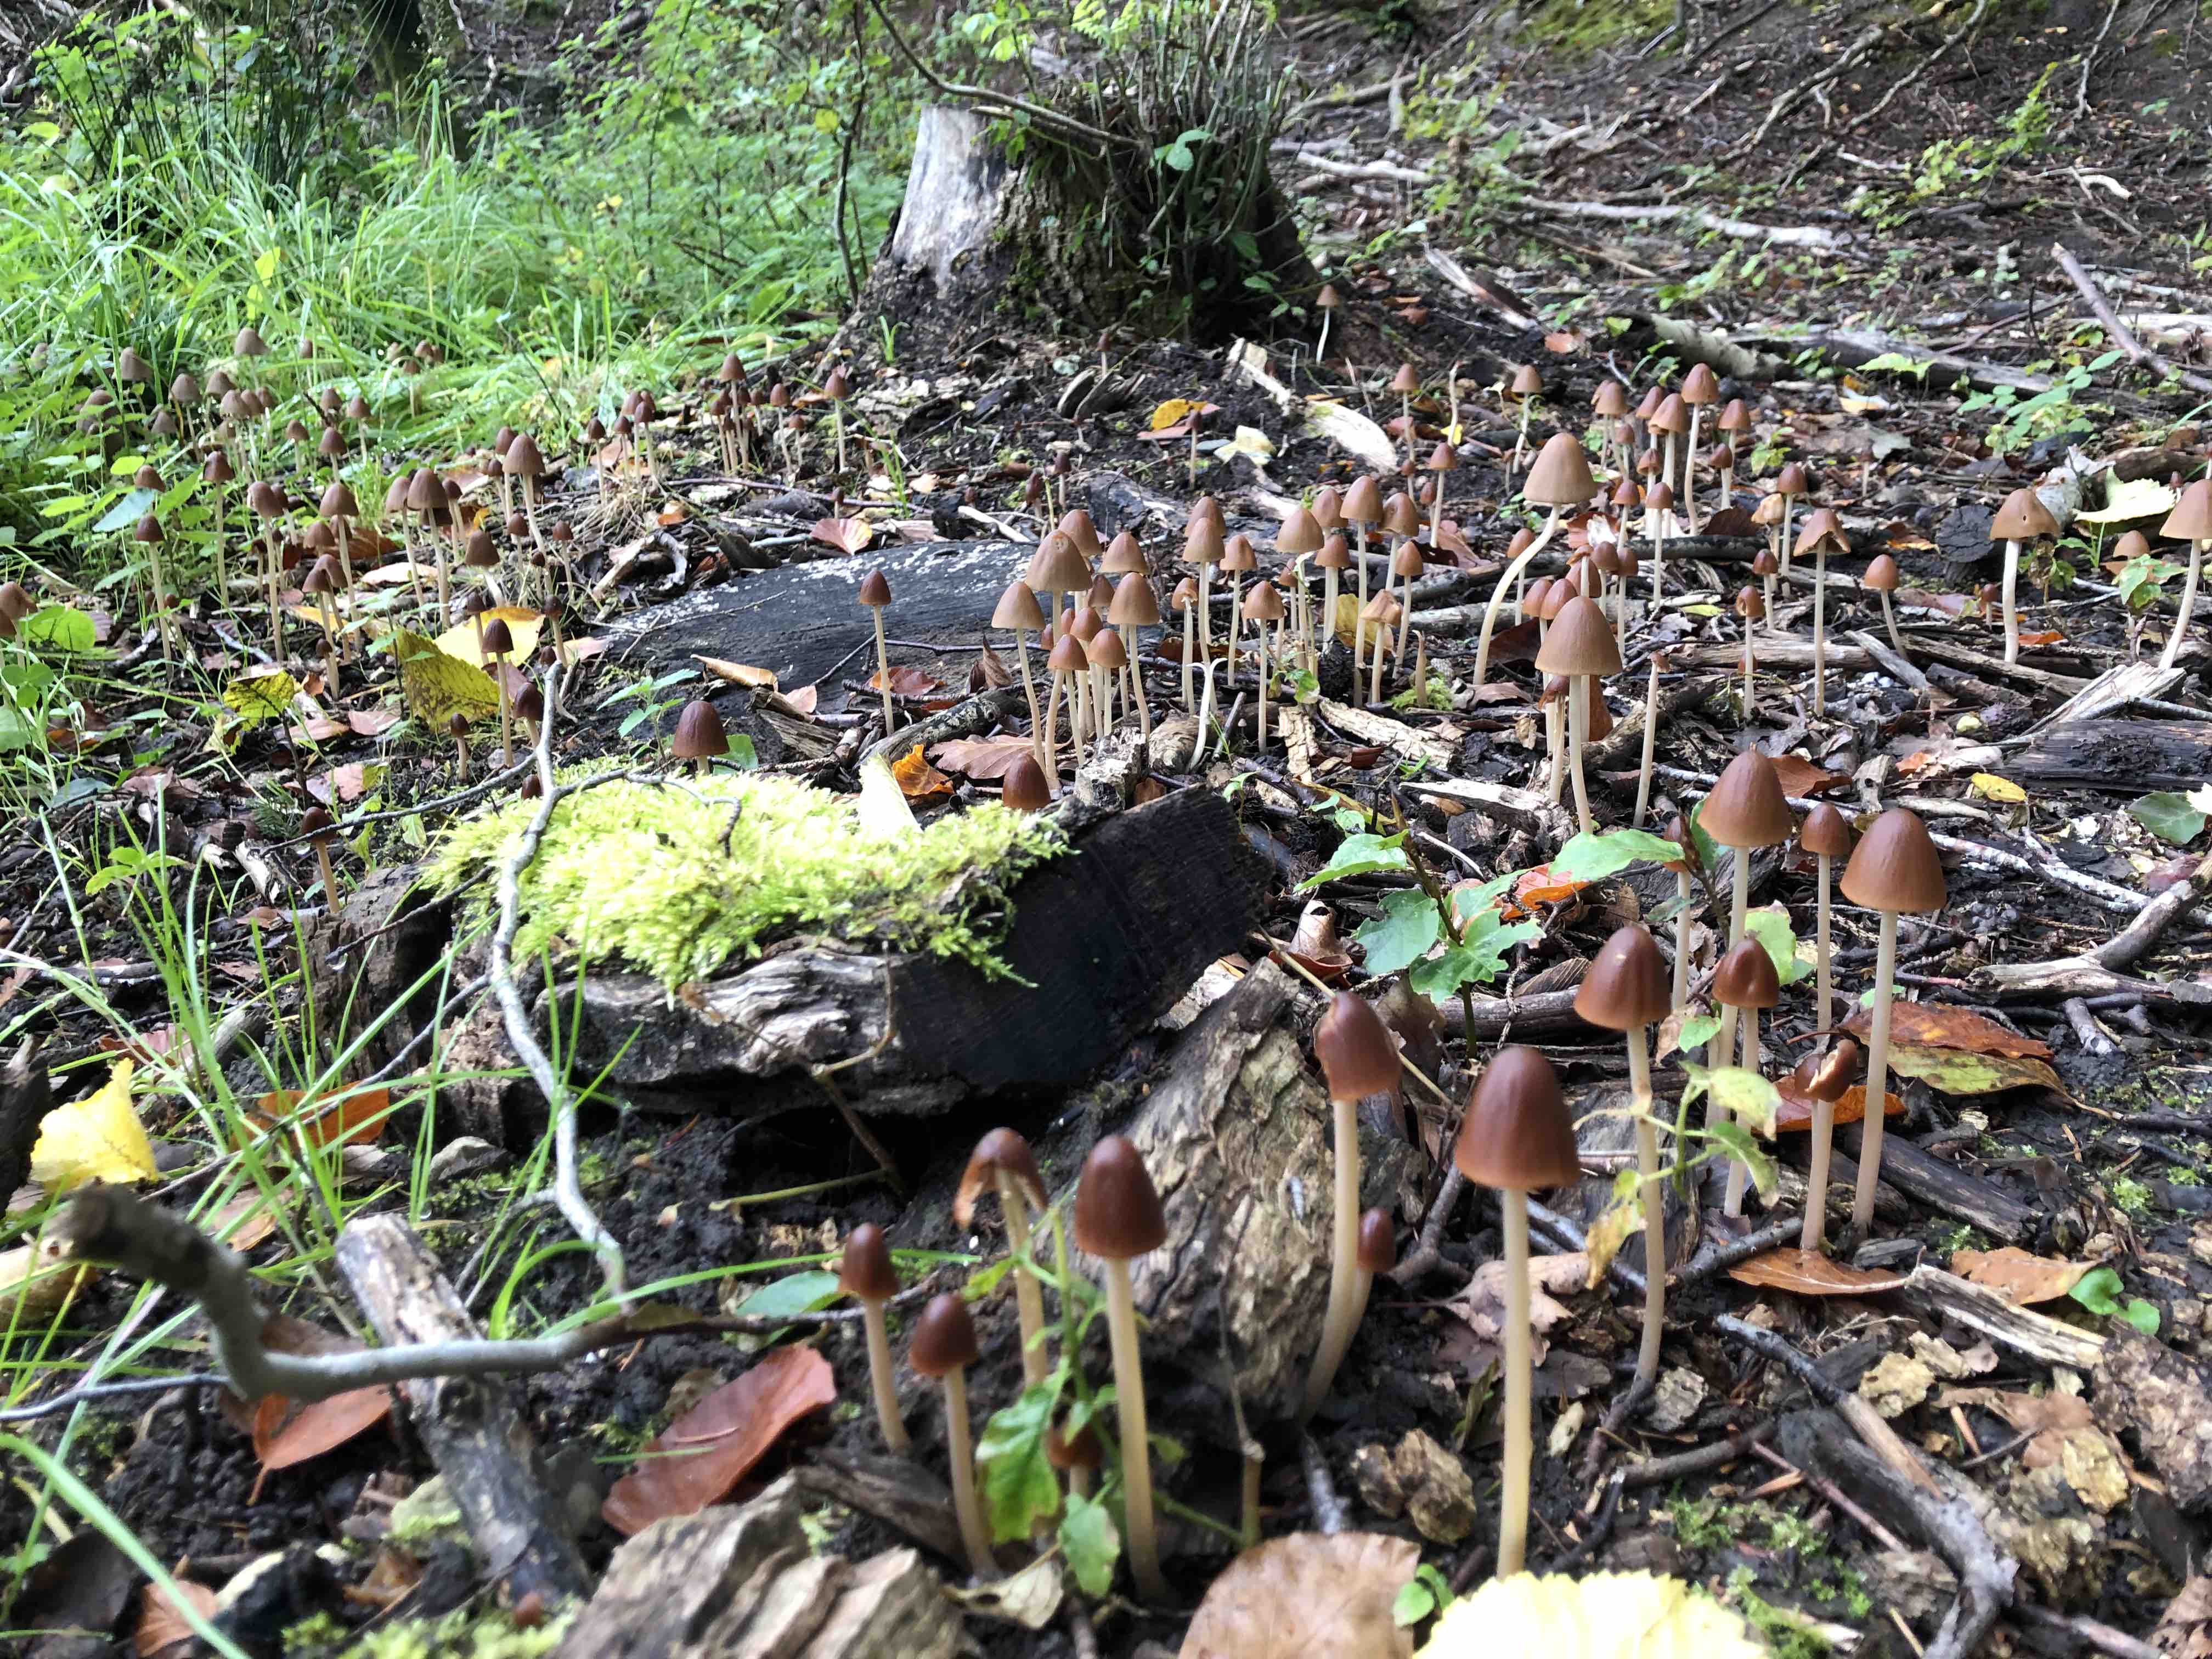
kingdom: Fungi
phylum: Basidiomycota
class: Agaricomycetes
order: Agaricales
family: Psathyrellaceae
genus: Parasola
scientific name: Parasola conopilea
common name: kegle-hjulhat
